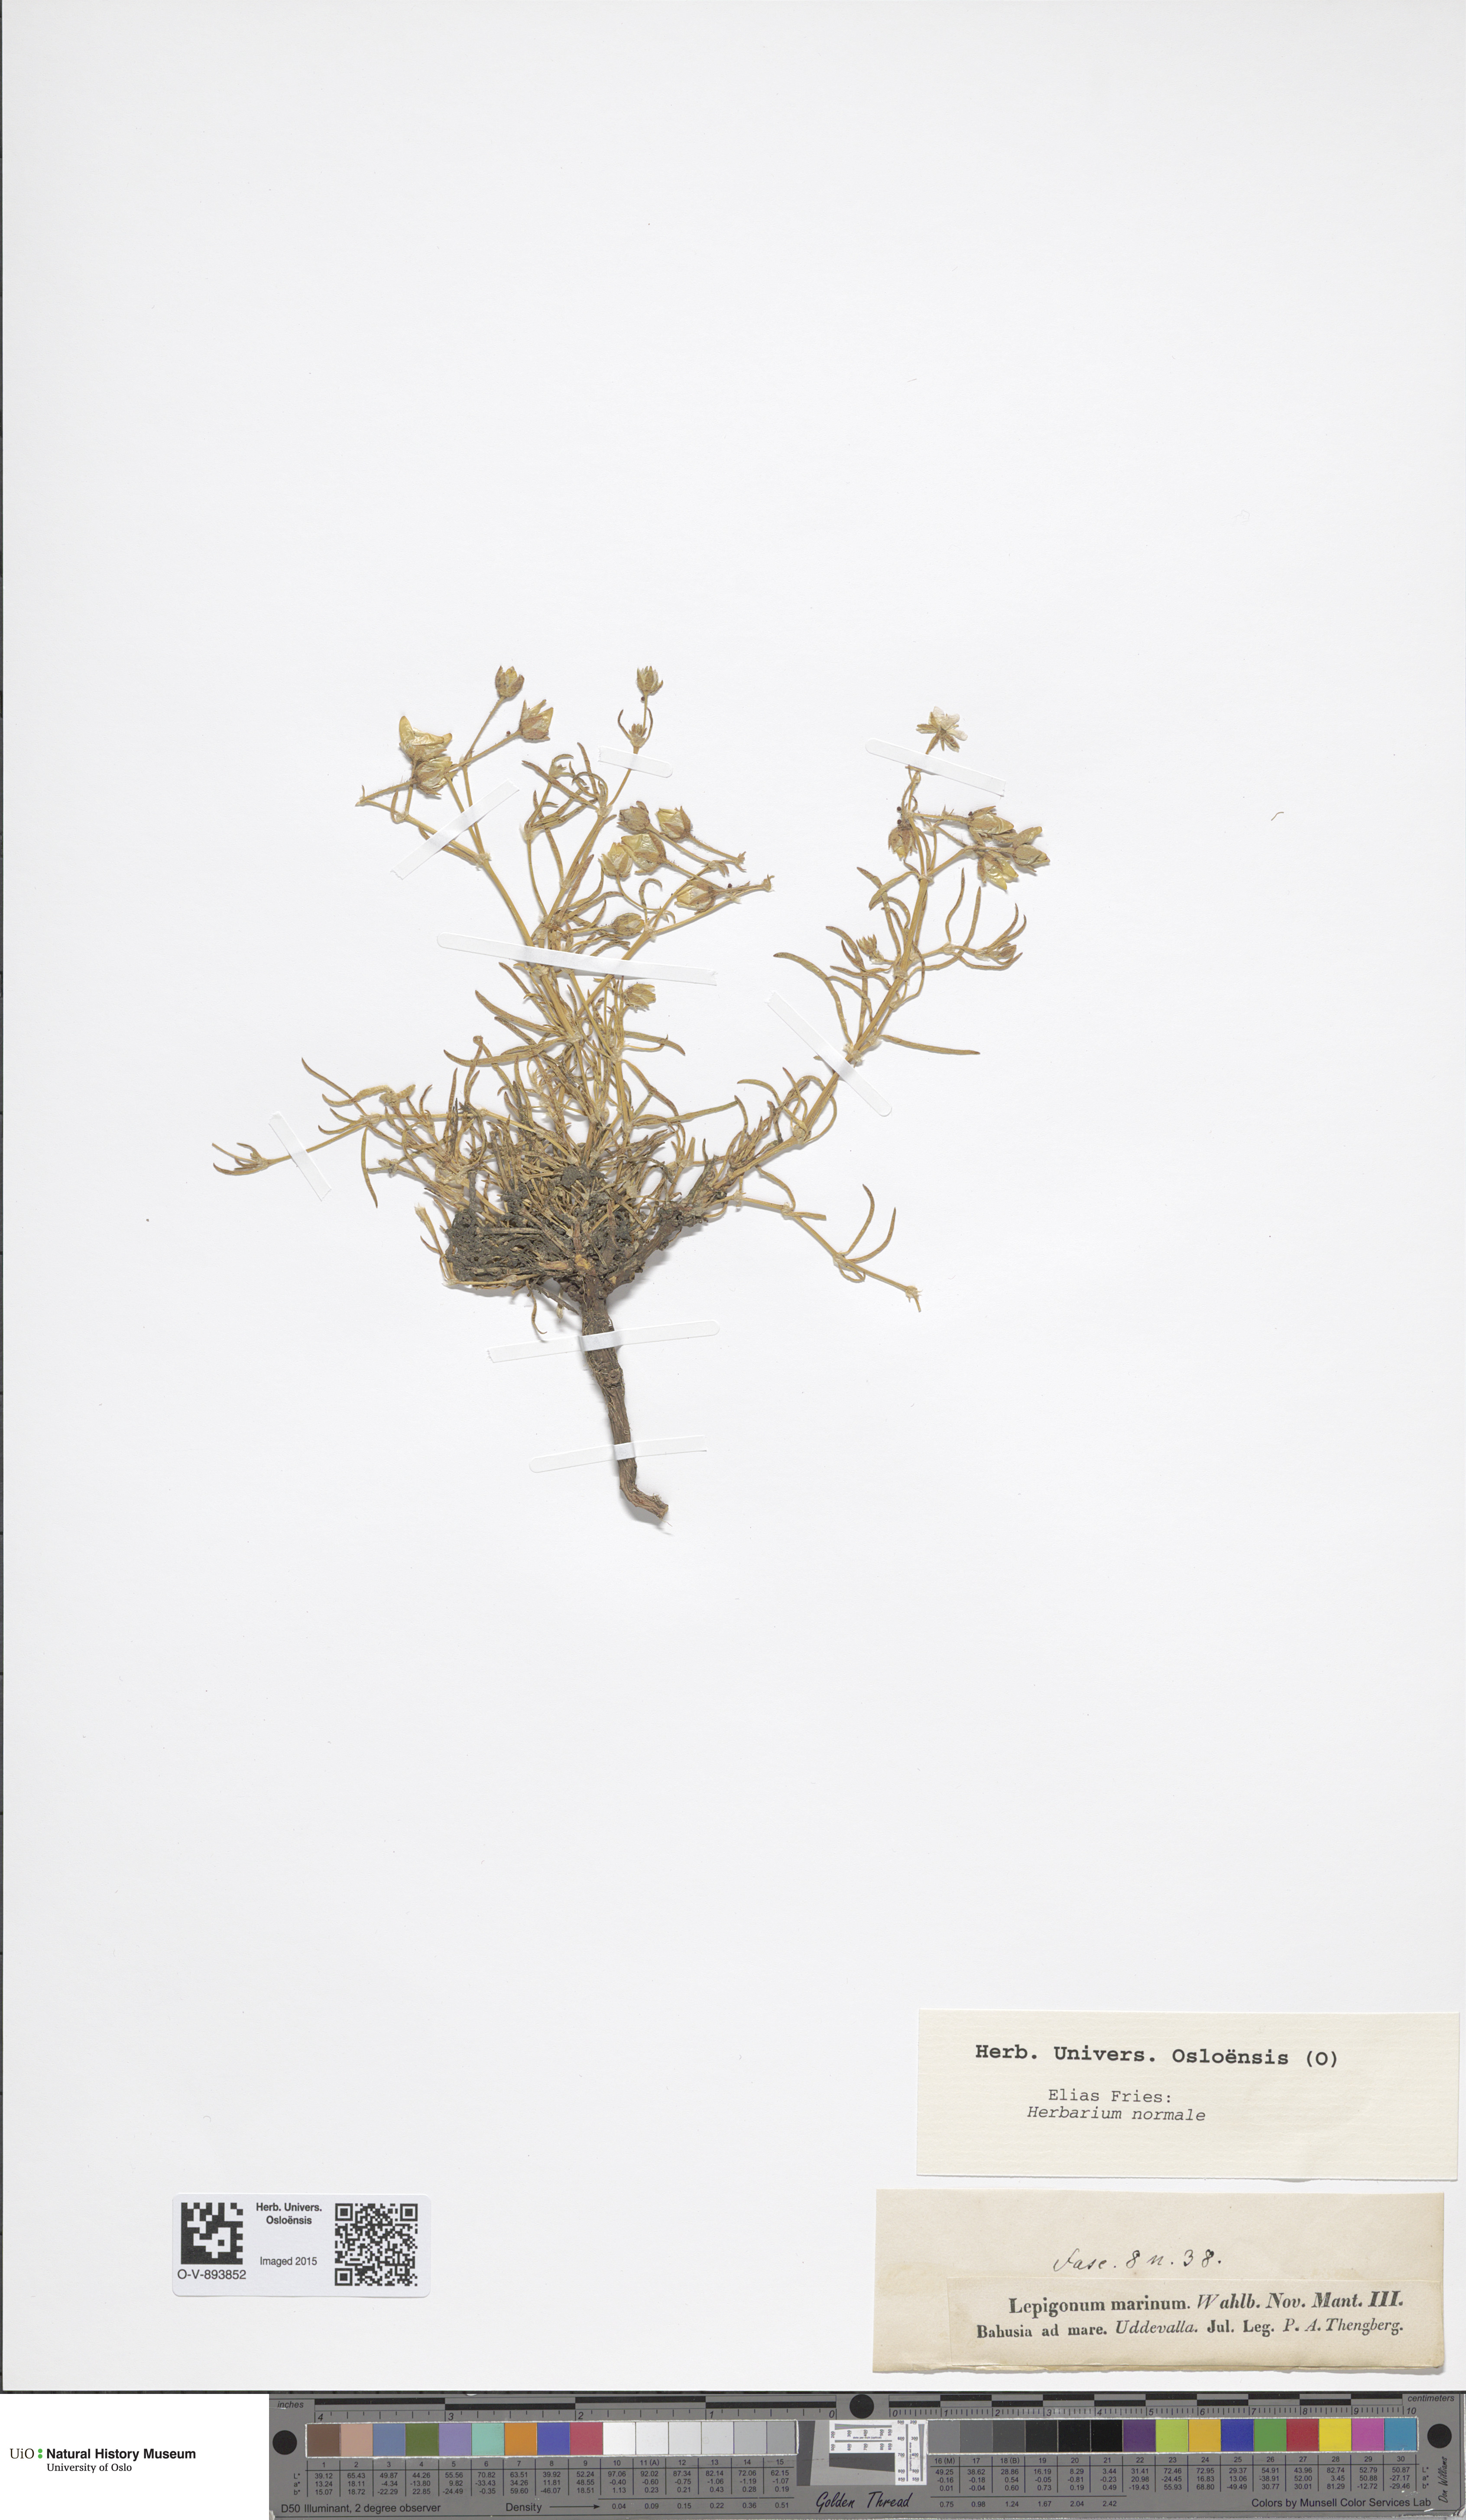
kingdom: Plantae
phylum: Tracheophyta
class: Magnoliopsida
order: Caryophyllales
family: Caryophyllaceae
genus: Spergularia
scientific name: Spergularia marina
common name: Lesser sea-spurrey
